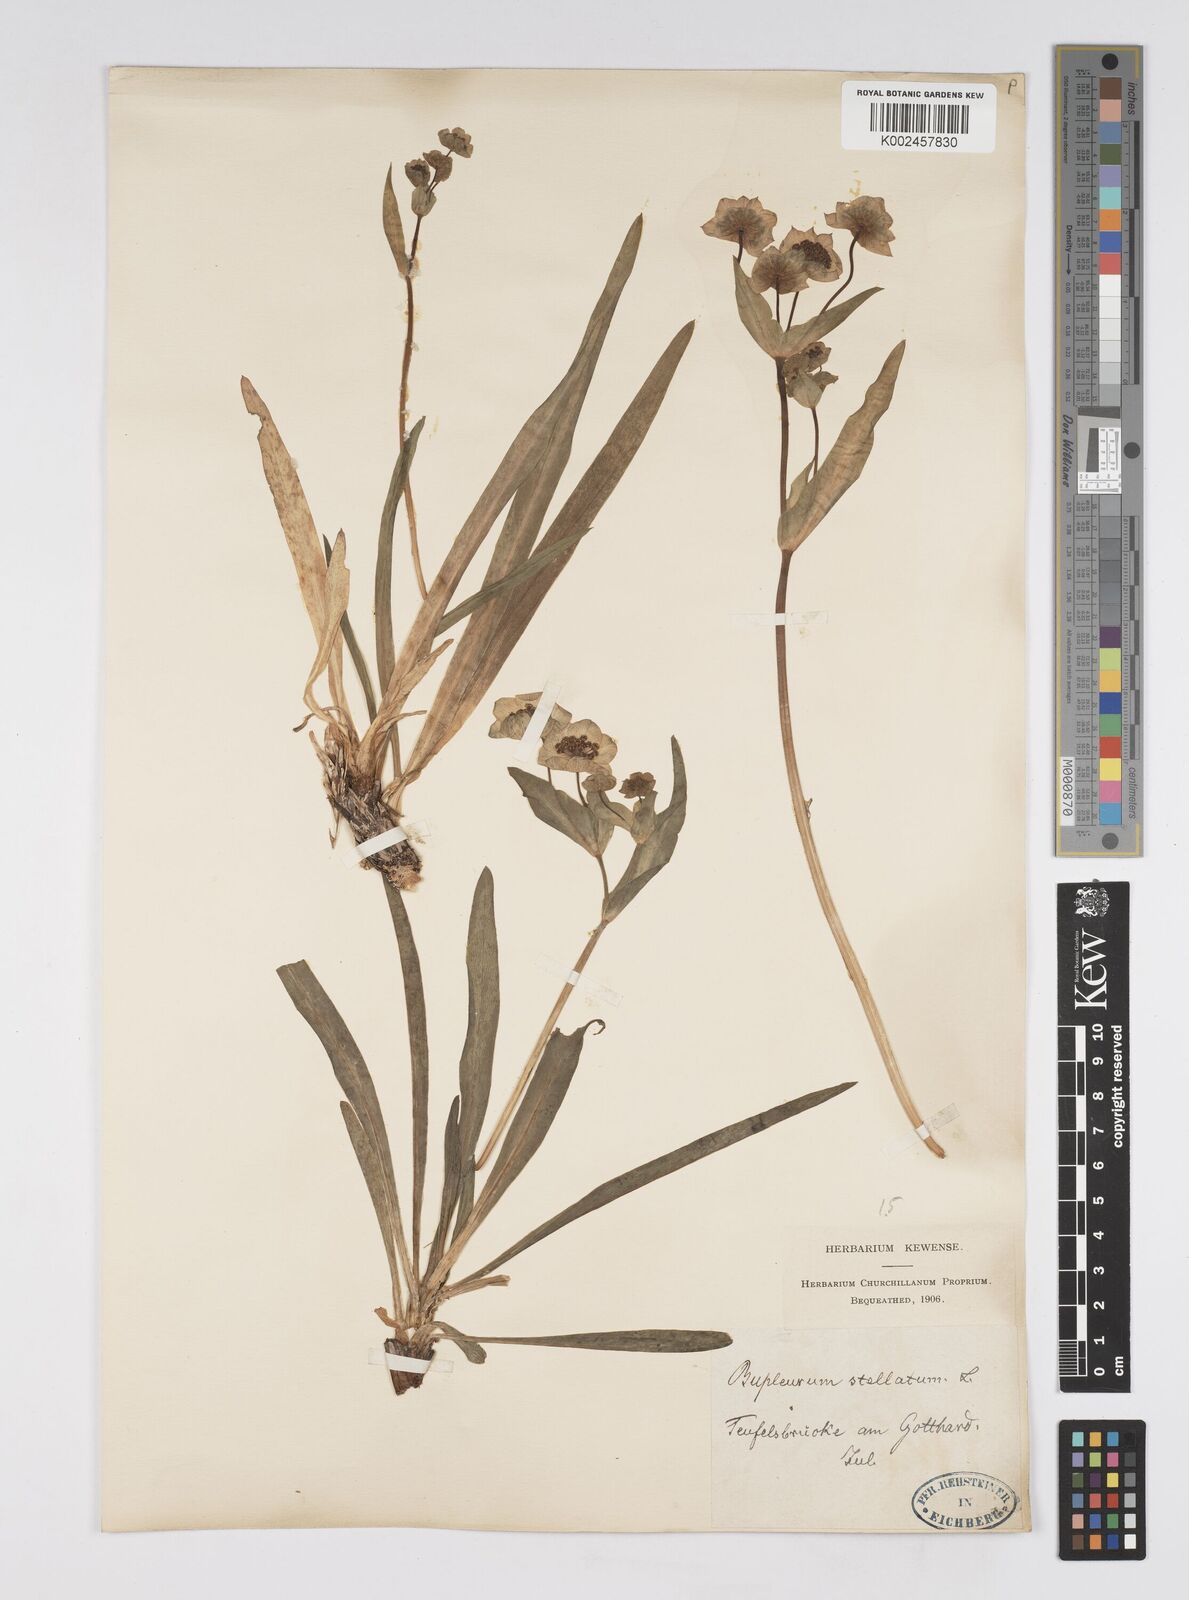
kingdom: Plantae
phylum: Tracheophyta
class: Magnoliopsida
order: Apiales
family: Apiaceae
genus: Bupleurum
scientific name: Bupleurum stellatum
